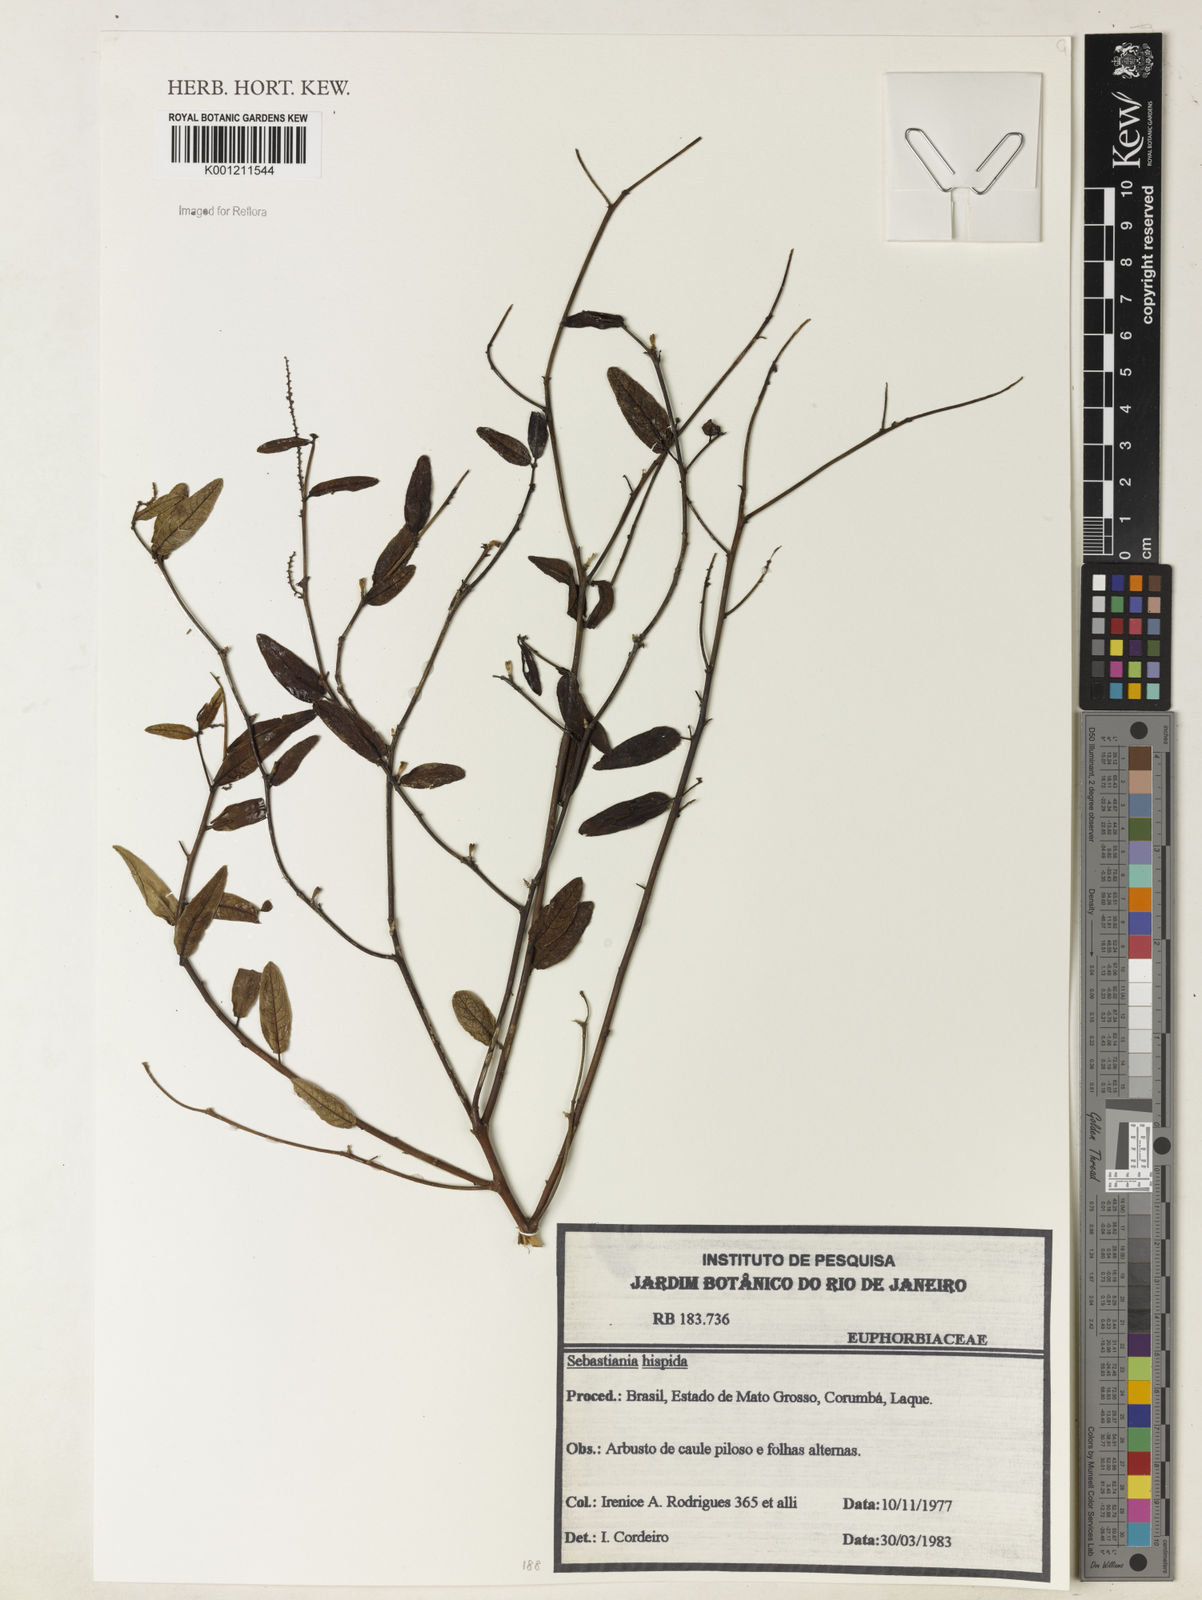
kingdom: Plantae
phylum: Tracheophyta
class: Magnoliopsida
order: Malpighiales
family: Euphorbiaceae
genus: Microstachys
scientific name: Microstachys hispida
